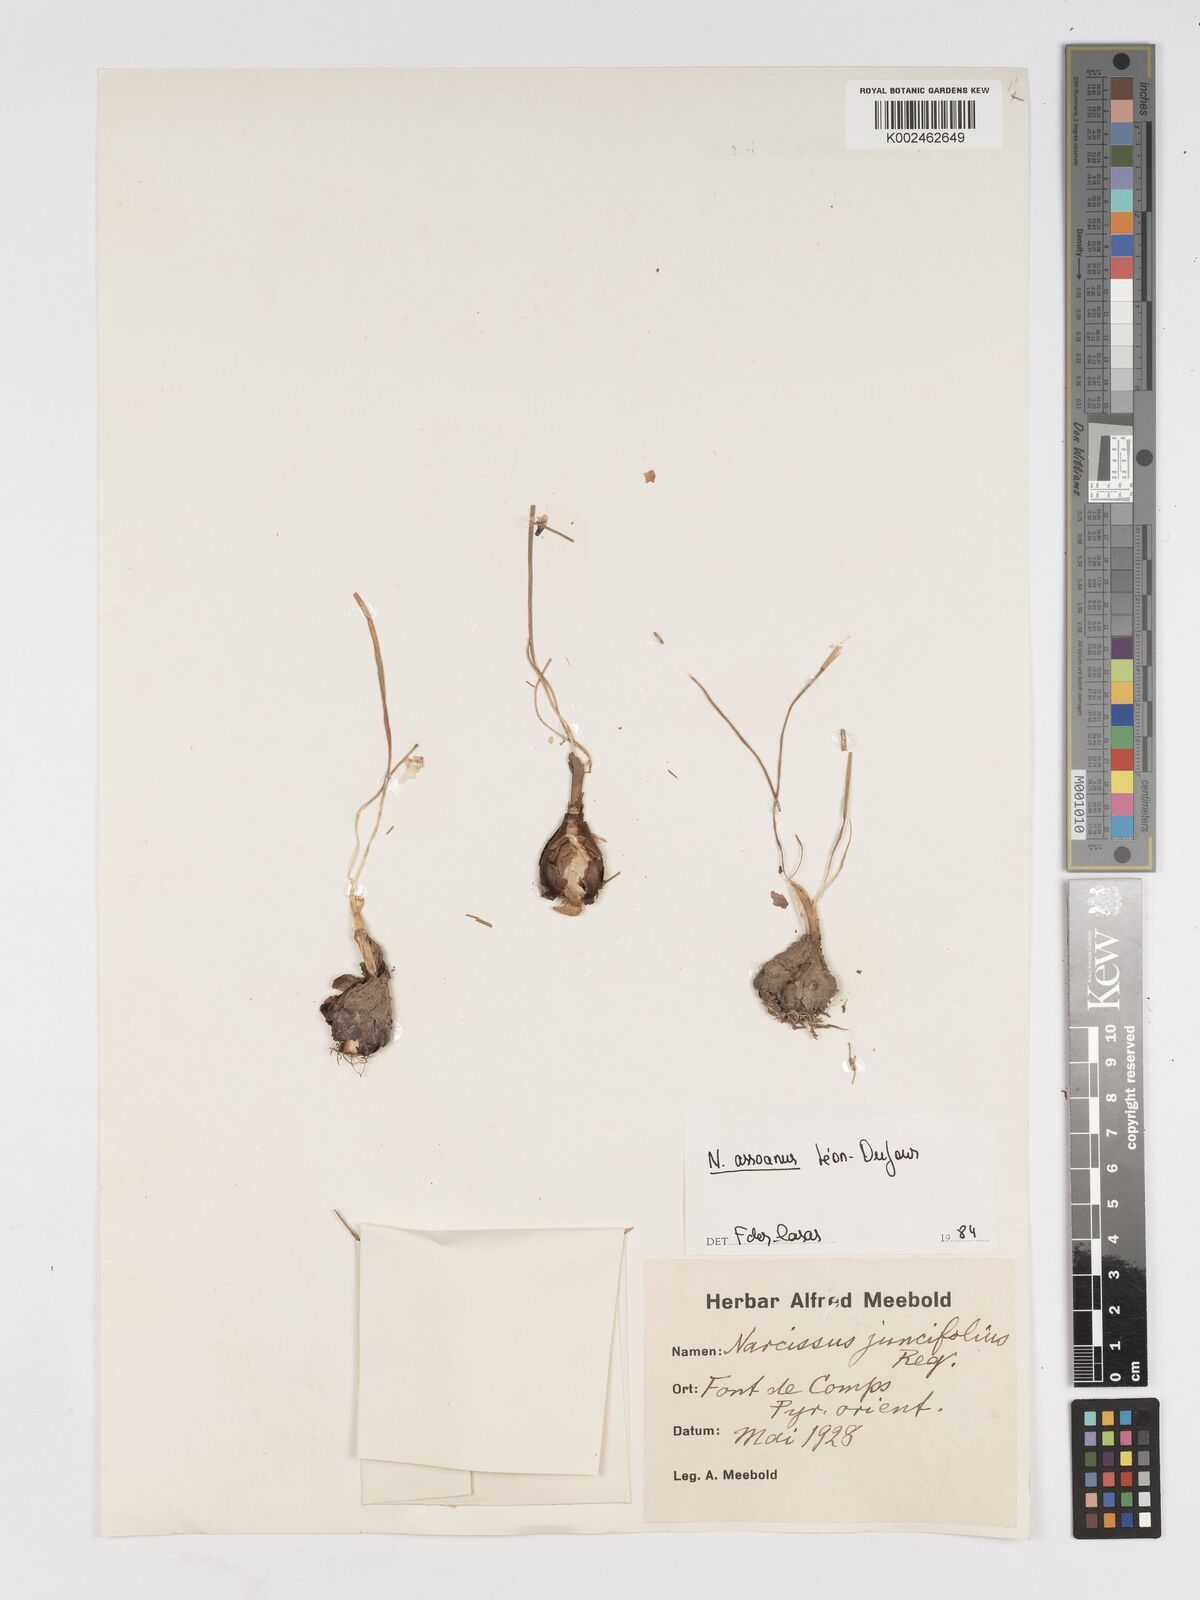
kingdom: Plantae
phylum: Tracheophyta
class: Liliopsida
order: Asparagales
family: Amaryllidaceae
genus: Narcissus
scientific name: Narcissus assoanus
